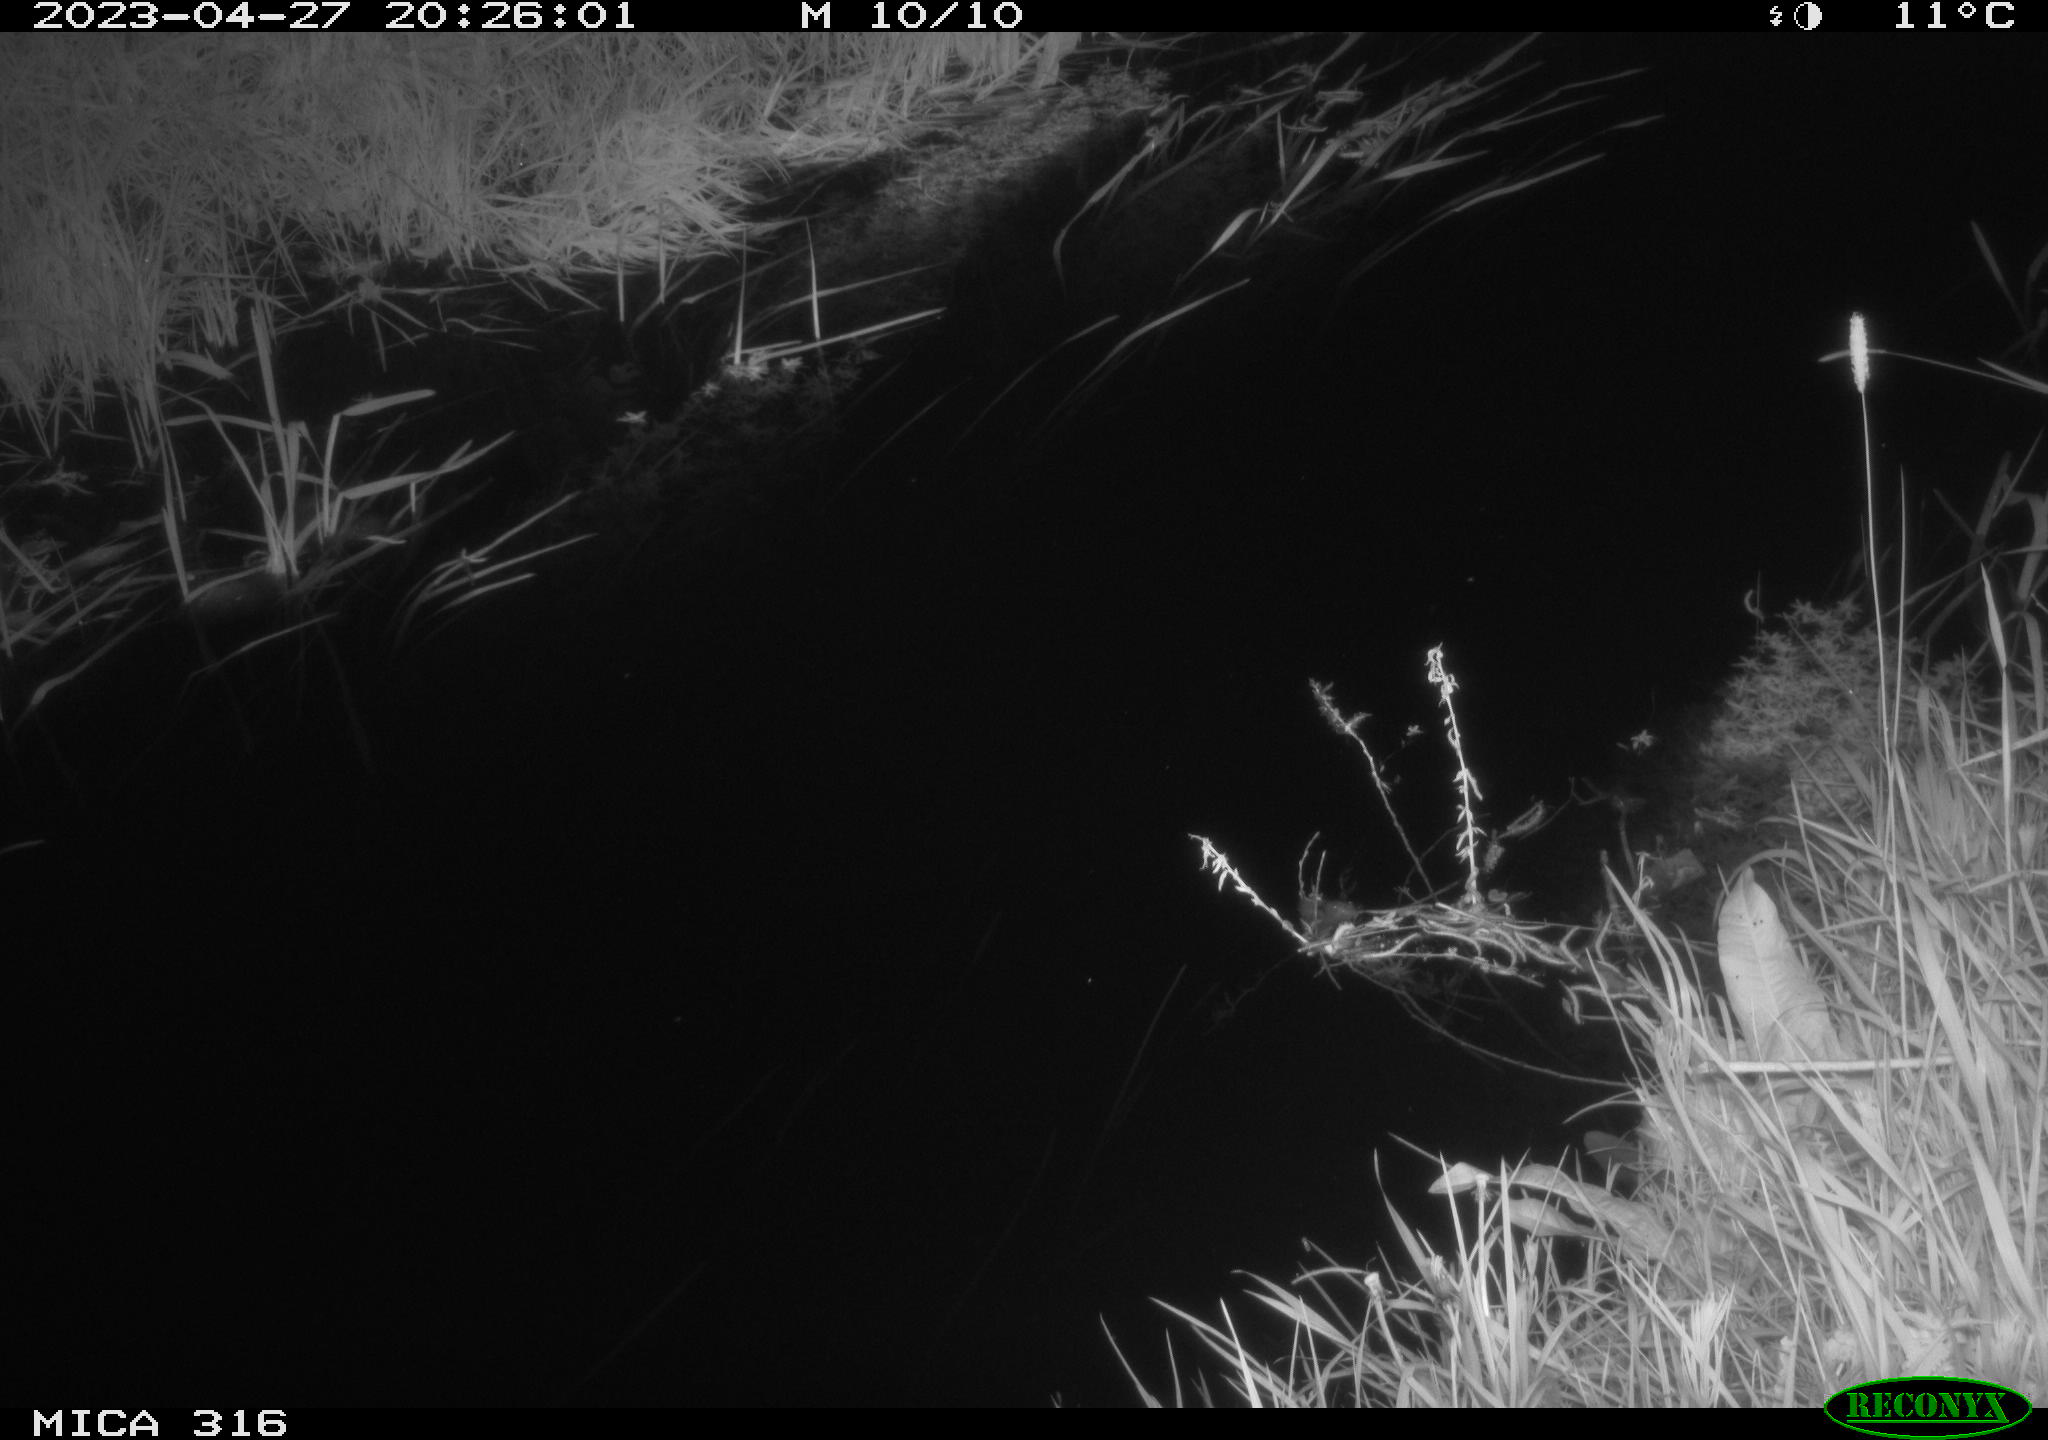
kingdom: Animalia
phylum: Chordata
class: Aves
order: Gruiformes
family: Rallidae
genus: Gallinula
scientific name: Gallinula chloropus
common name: Common moorhen
